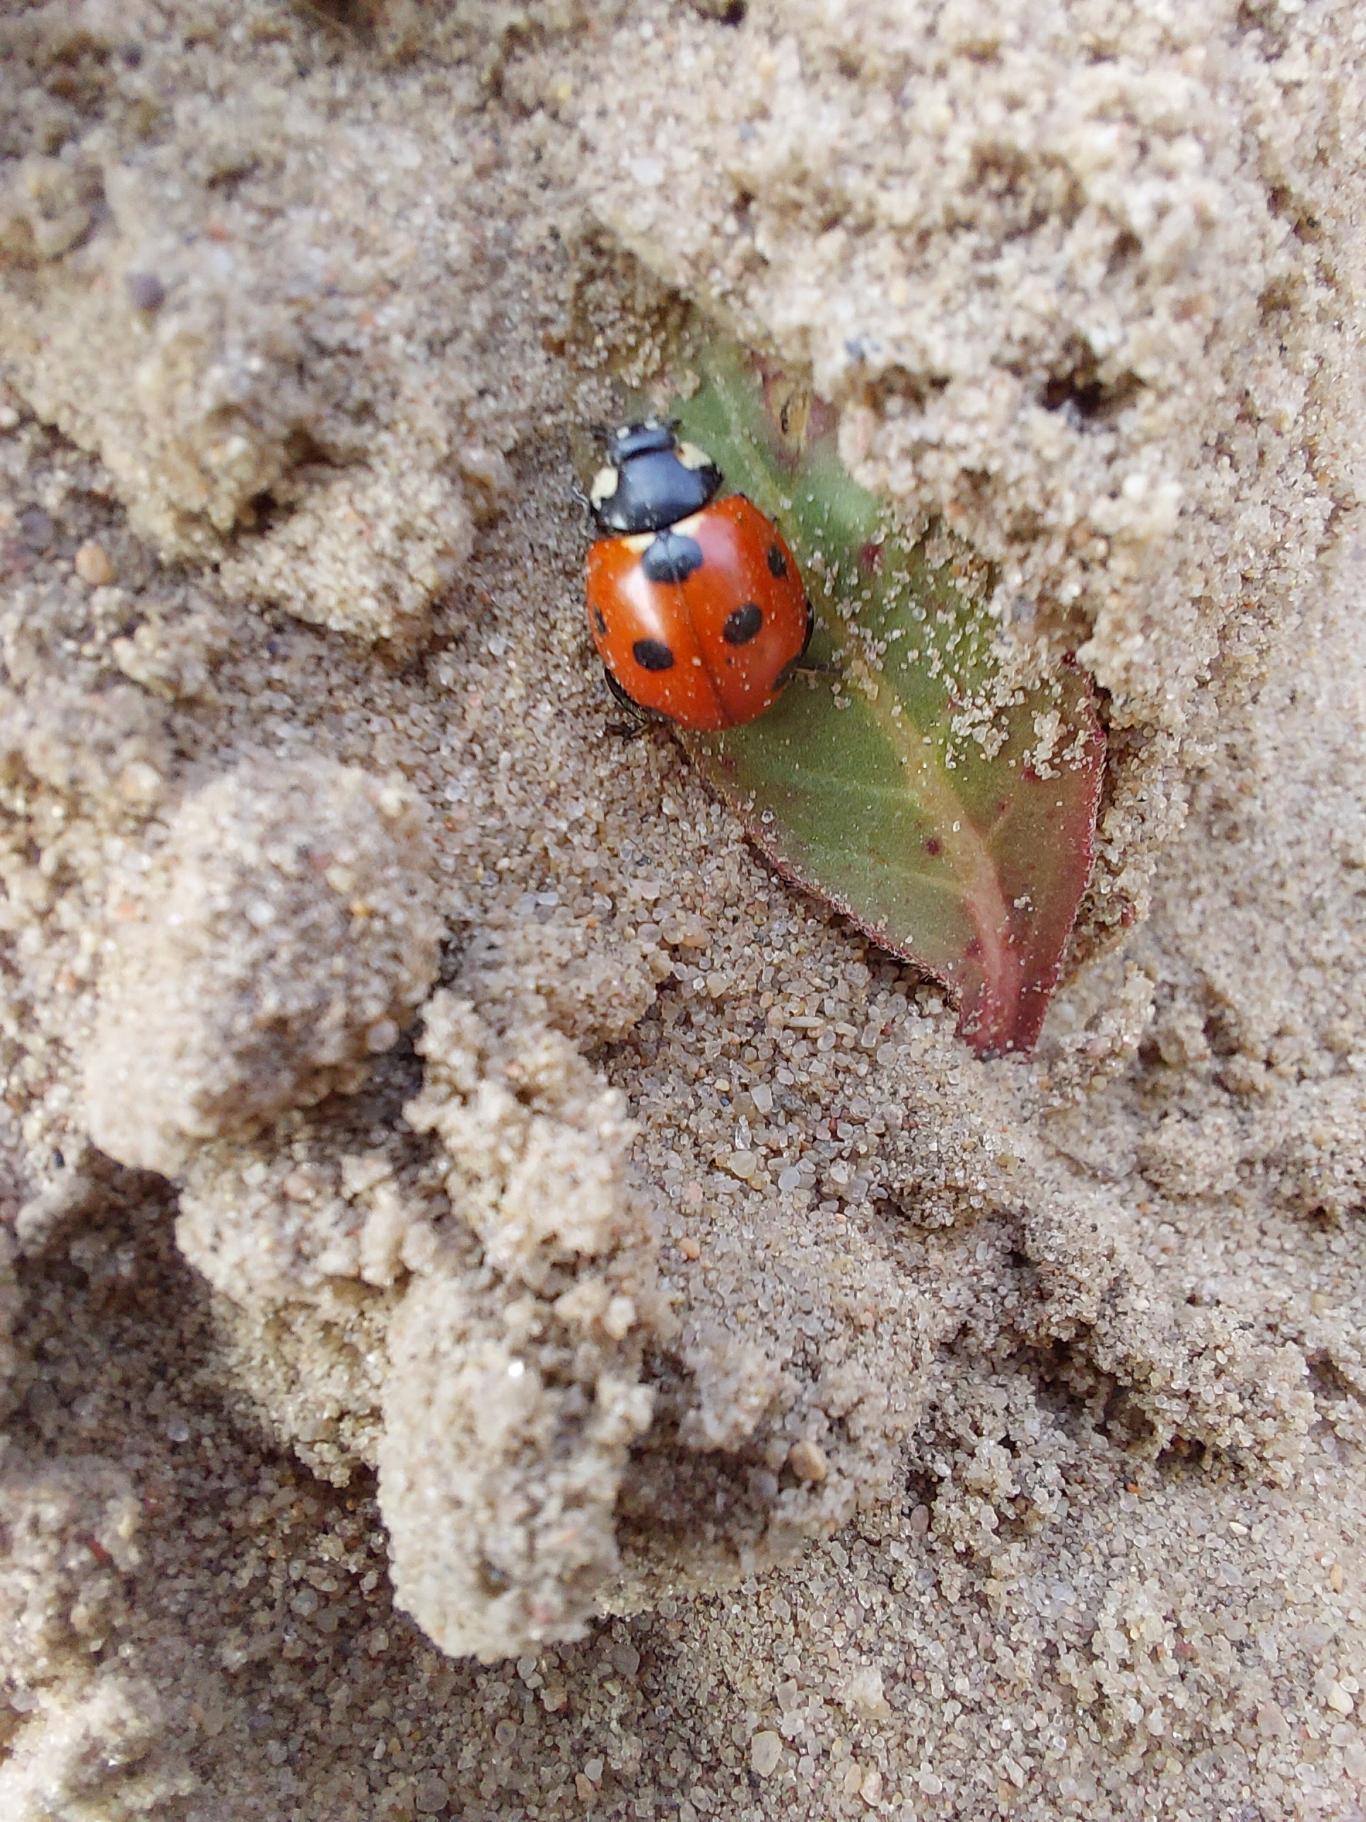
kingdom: Animalia
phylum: Arthropoda
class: Insecta
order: Coleoptera
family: Coccinellidae
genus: Coccinella
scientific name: Coccinella magnifica
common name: Myremariehøne
